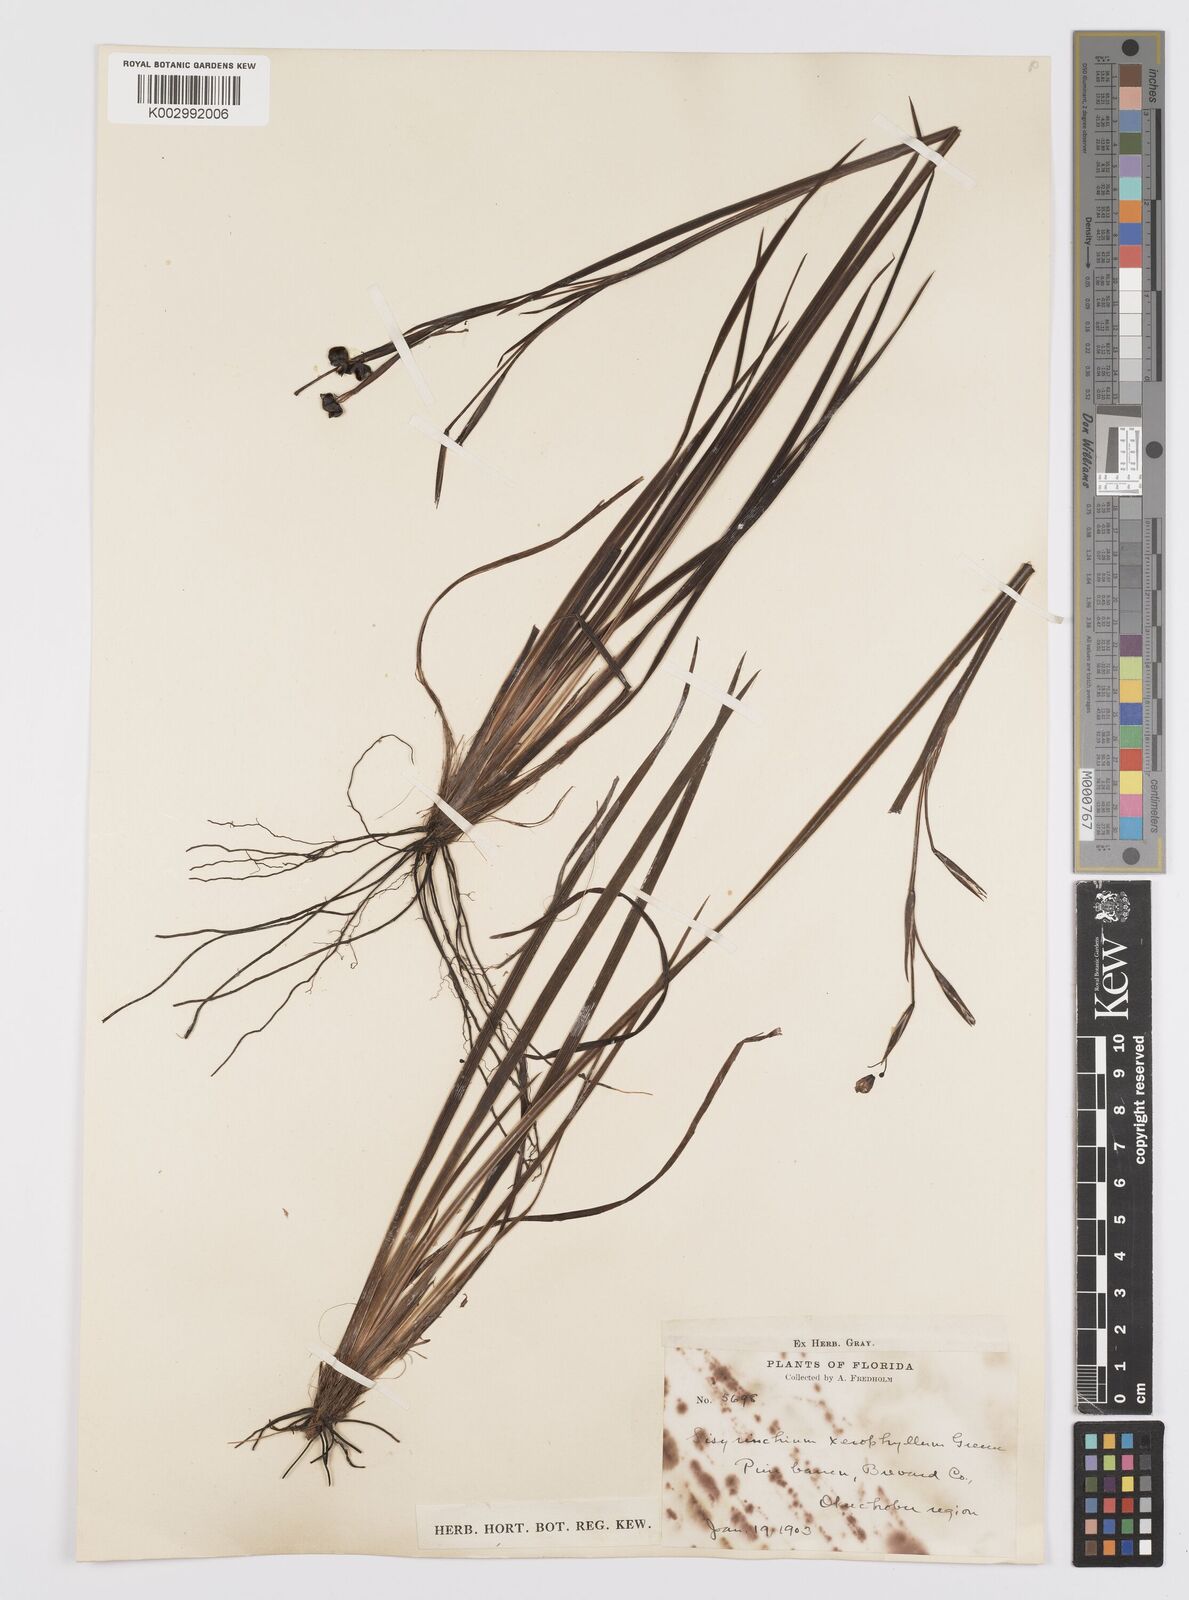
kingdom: Plantae
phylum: Tracheophyta
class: Liliopsida
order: Asparagales
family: Iridaceae
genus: Sisyrinchium
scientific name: Sisyrinchium xerophyllum
